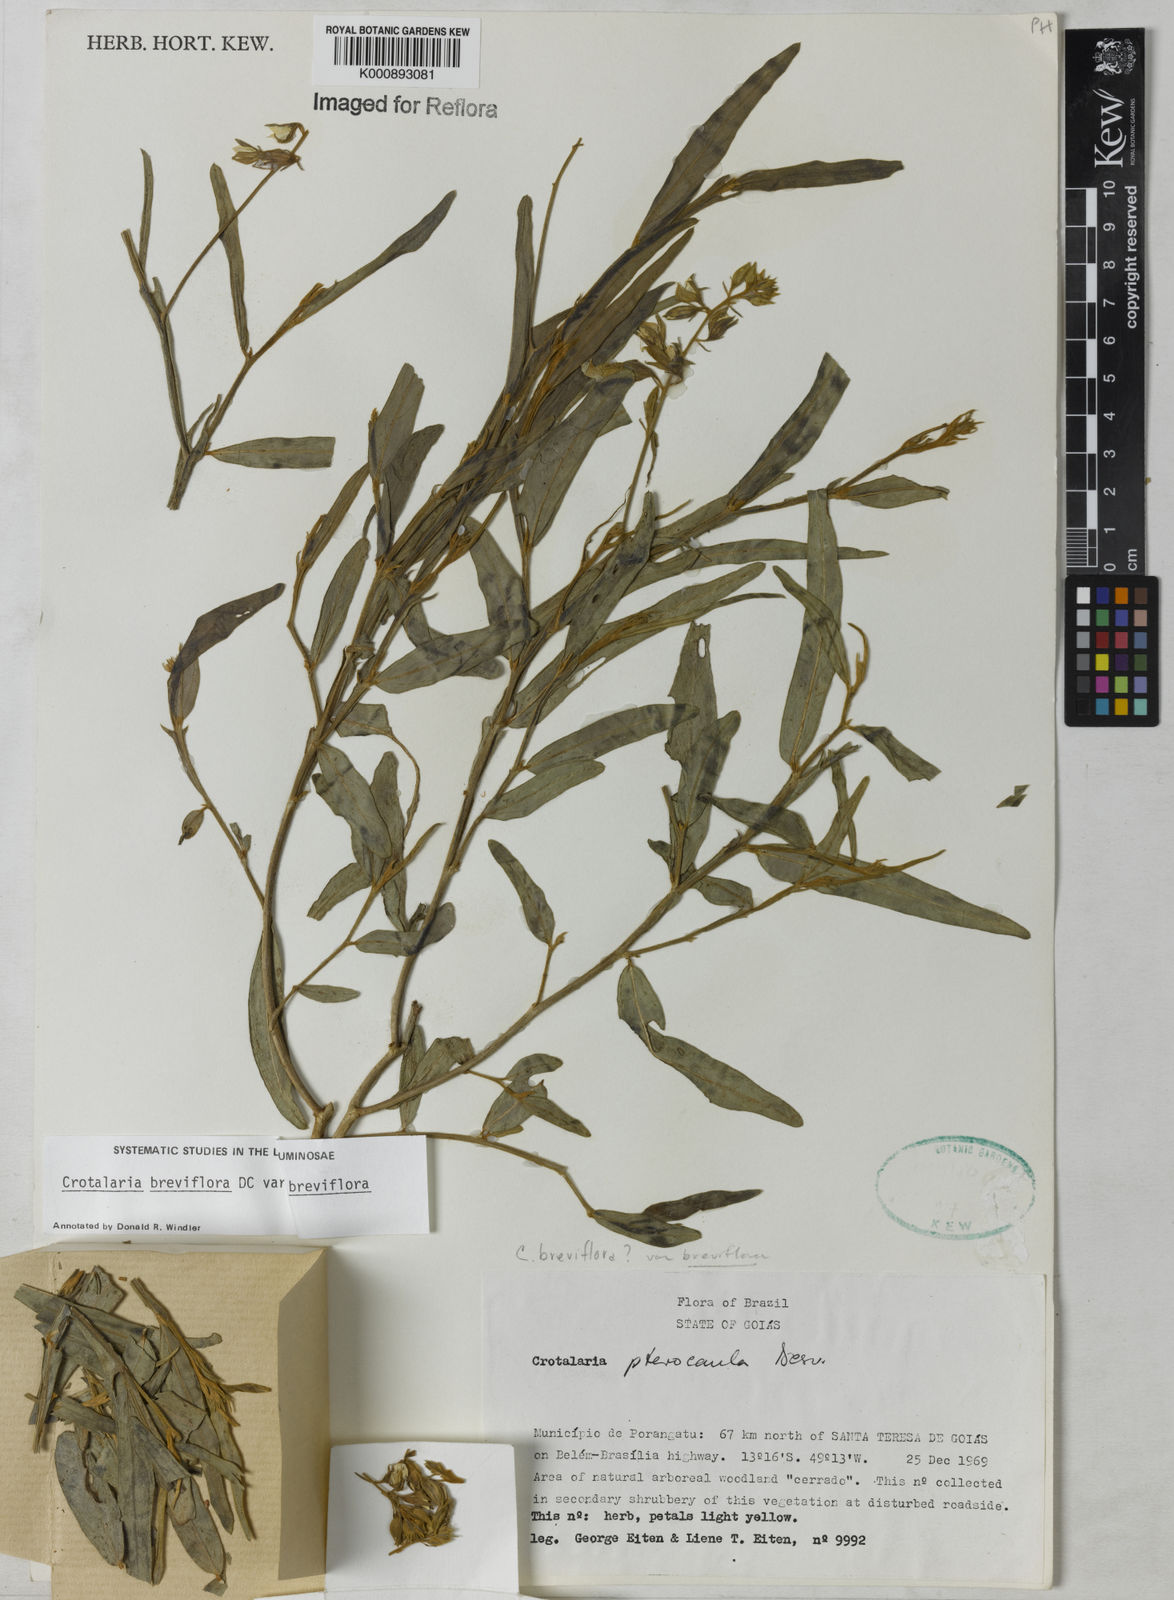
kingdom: Plantae
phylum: Tracheophyta
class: Magnoliopsida
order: Fabales
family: Fabaceae
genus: Crotalaria
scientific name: Crotalaria breviflora
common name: Short-flower crotalaria
